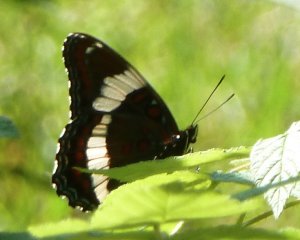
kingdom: Animalia
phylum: Arthropoda
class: Insecta
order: Lepidoptera
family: Nymphalidae
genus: Limenitis
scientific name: Limenitis arthemis
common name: Red-spotted Admiral
